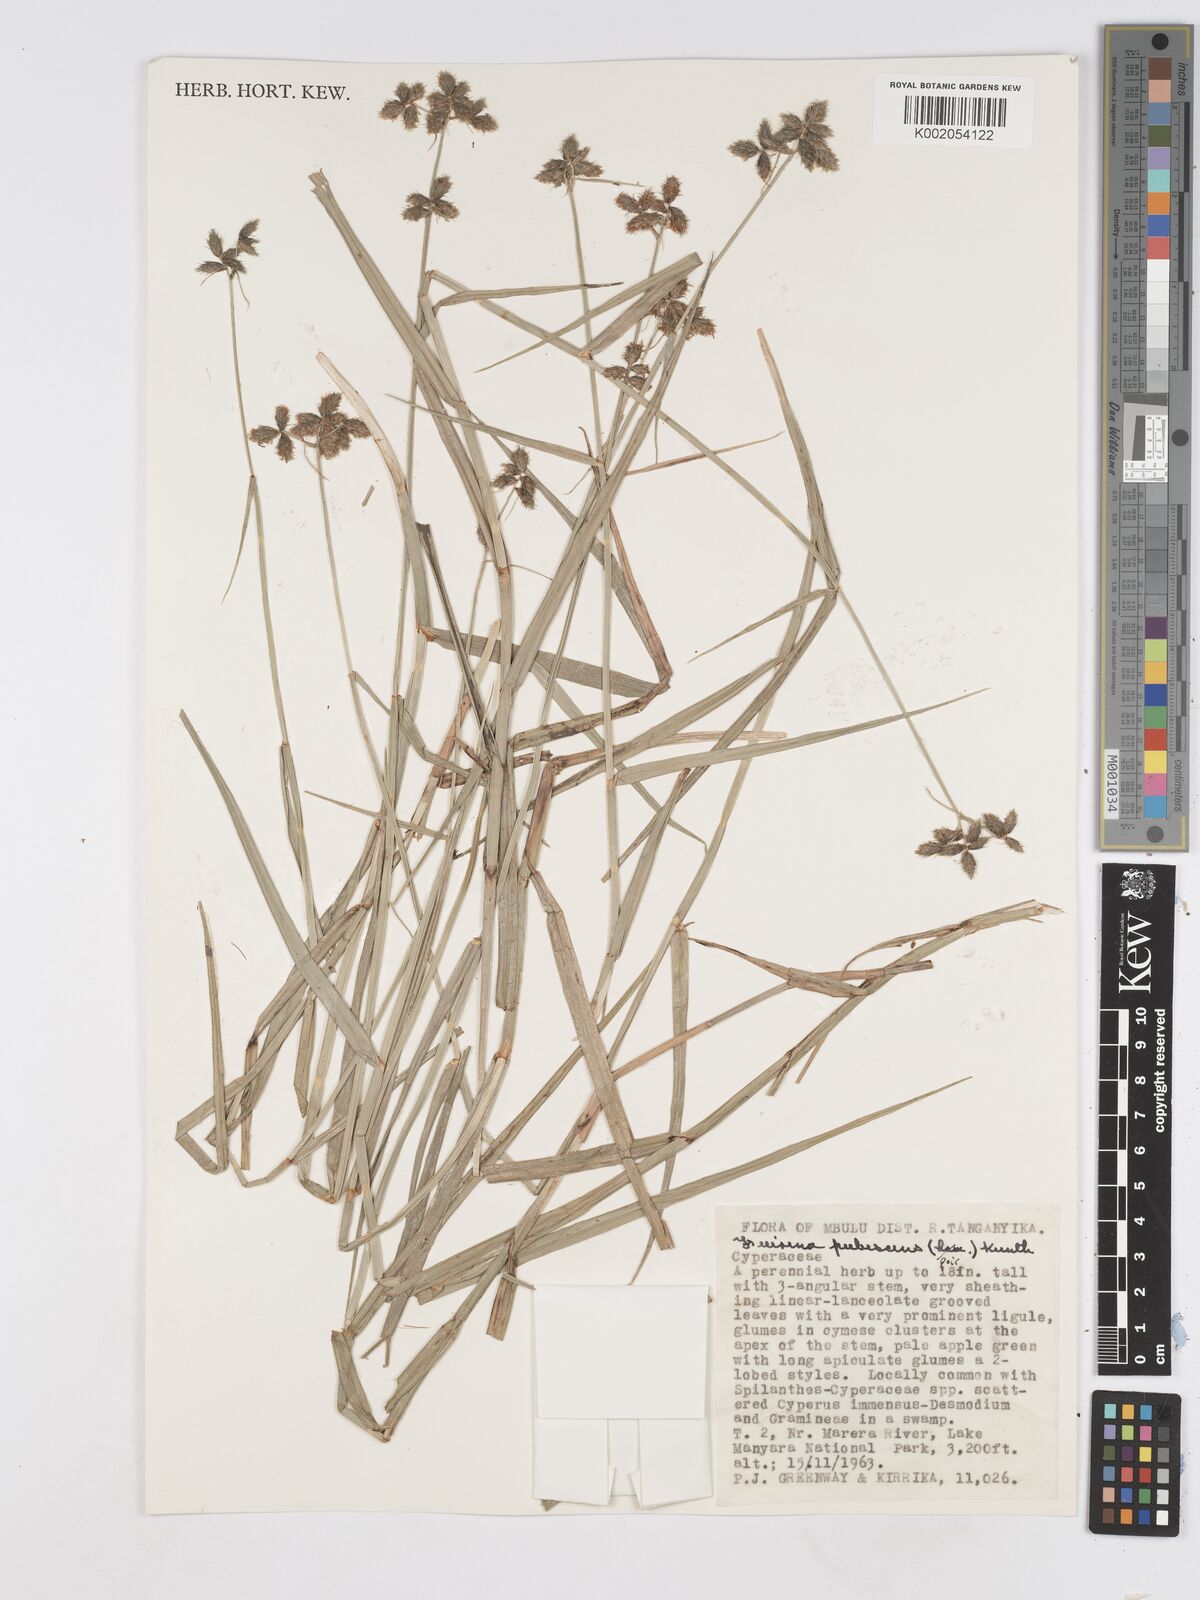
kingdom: Plantae
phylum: Tracheophyta
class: Liliopsida
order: Poales
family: Cyperaceae
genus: Fuirena
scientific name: Fuirena pubescens
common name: Hairy sedge
